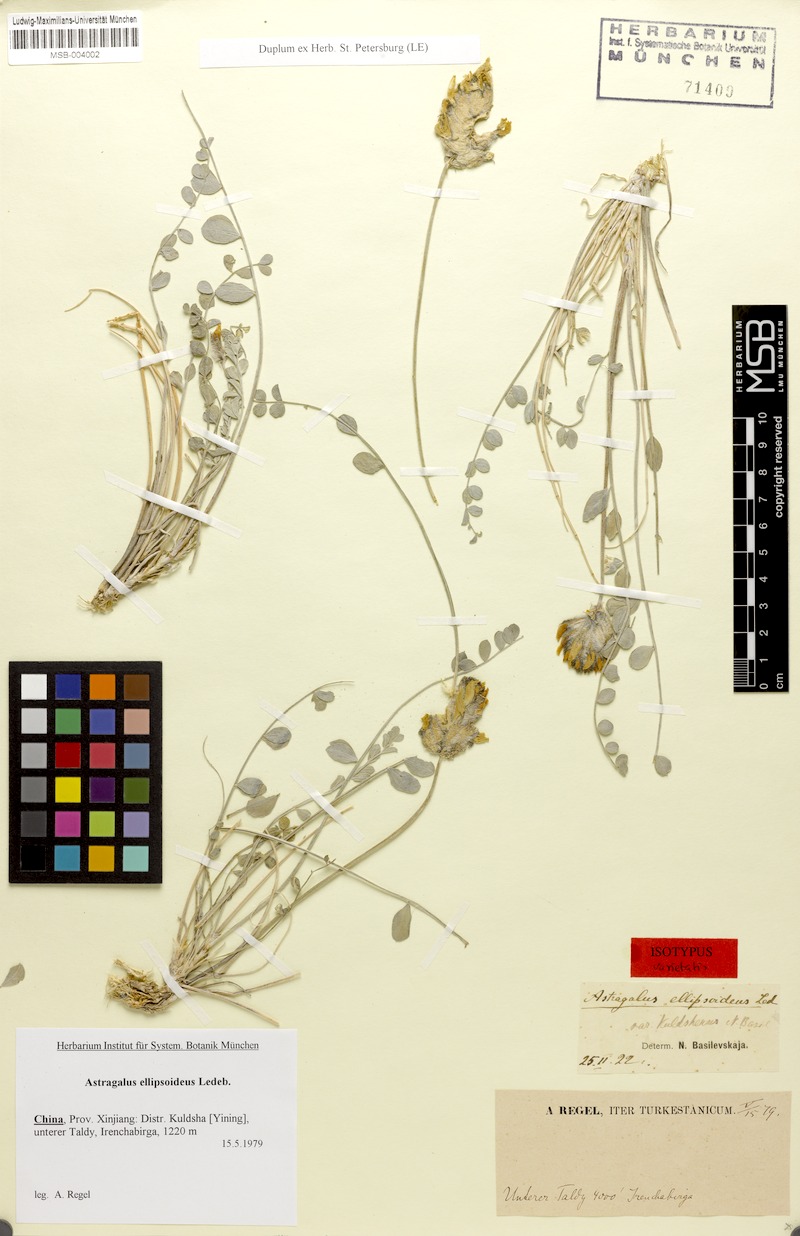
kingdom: Plantae
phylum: Tracheophyta
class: Magnoliopsida
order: Fabales
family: Fabaceae
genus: Astragalus
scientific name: Astragalus ellipsoideus
